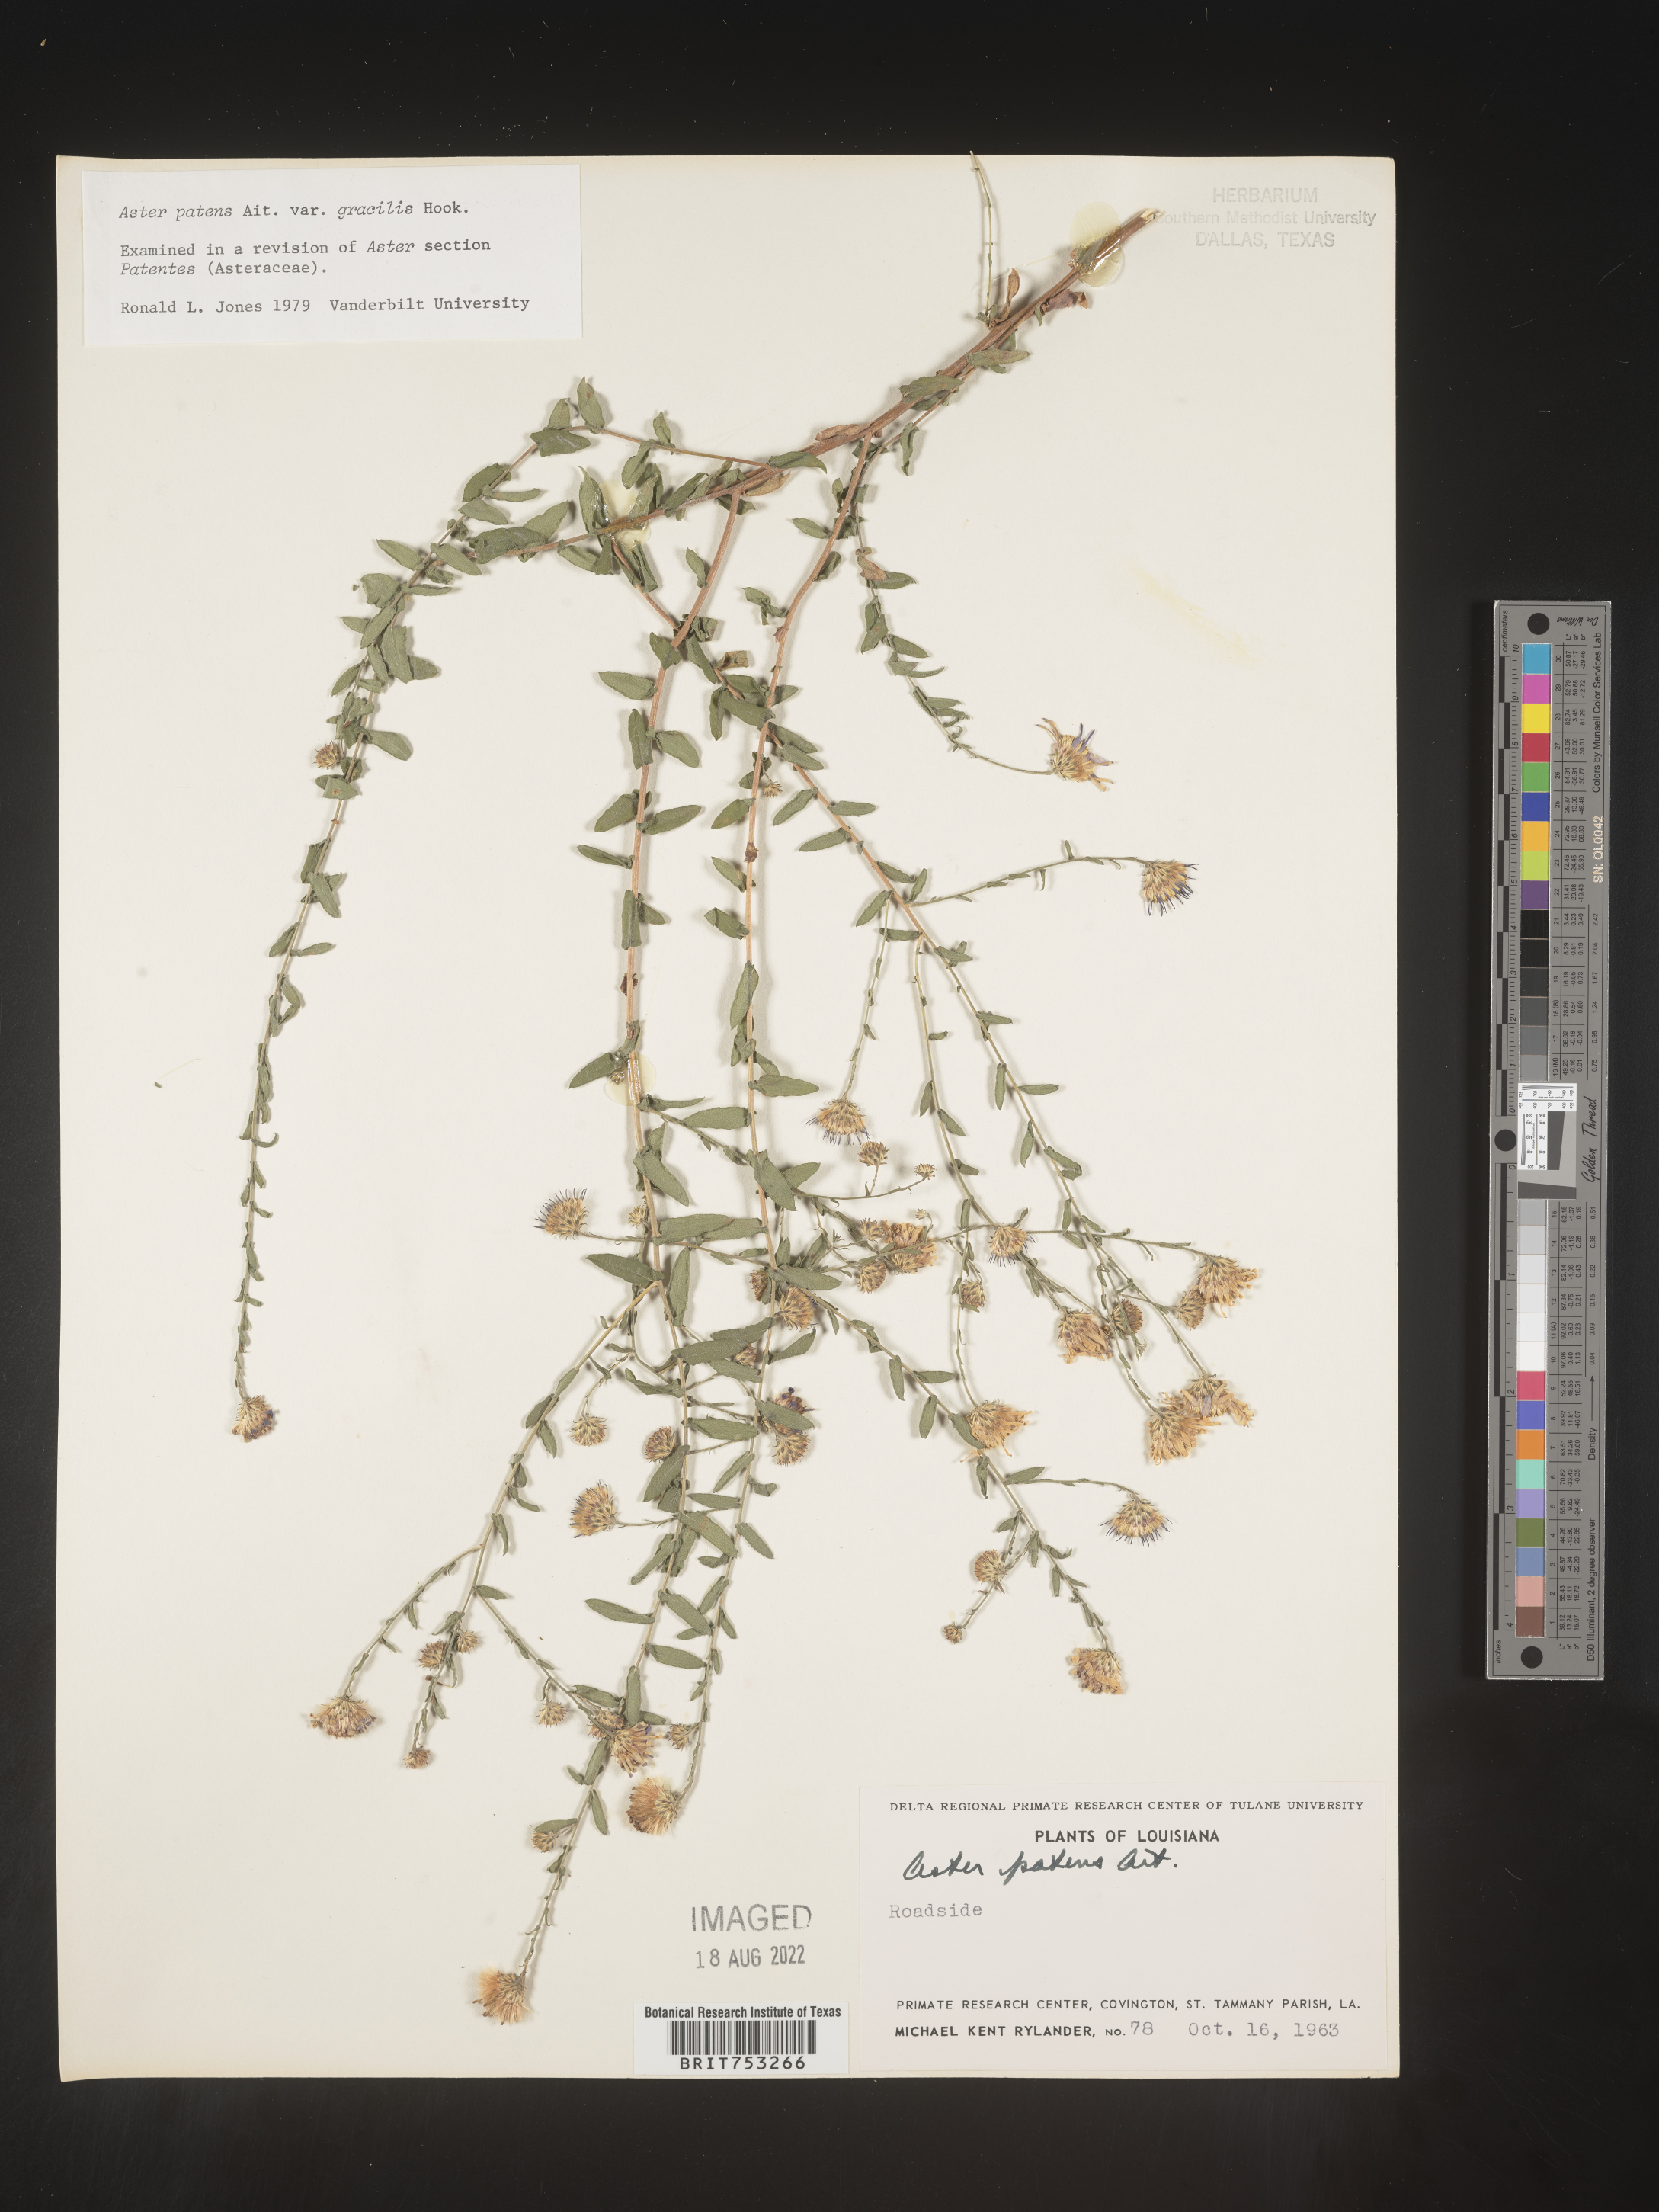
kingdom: Plantae
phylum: Tracheophyta
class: Magnoliopsida
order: Asterales
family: Asteraceae
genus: Symphyotrichum
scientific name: Symphyotrichum patens
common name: Late purple aster
